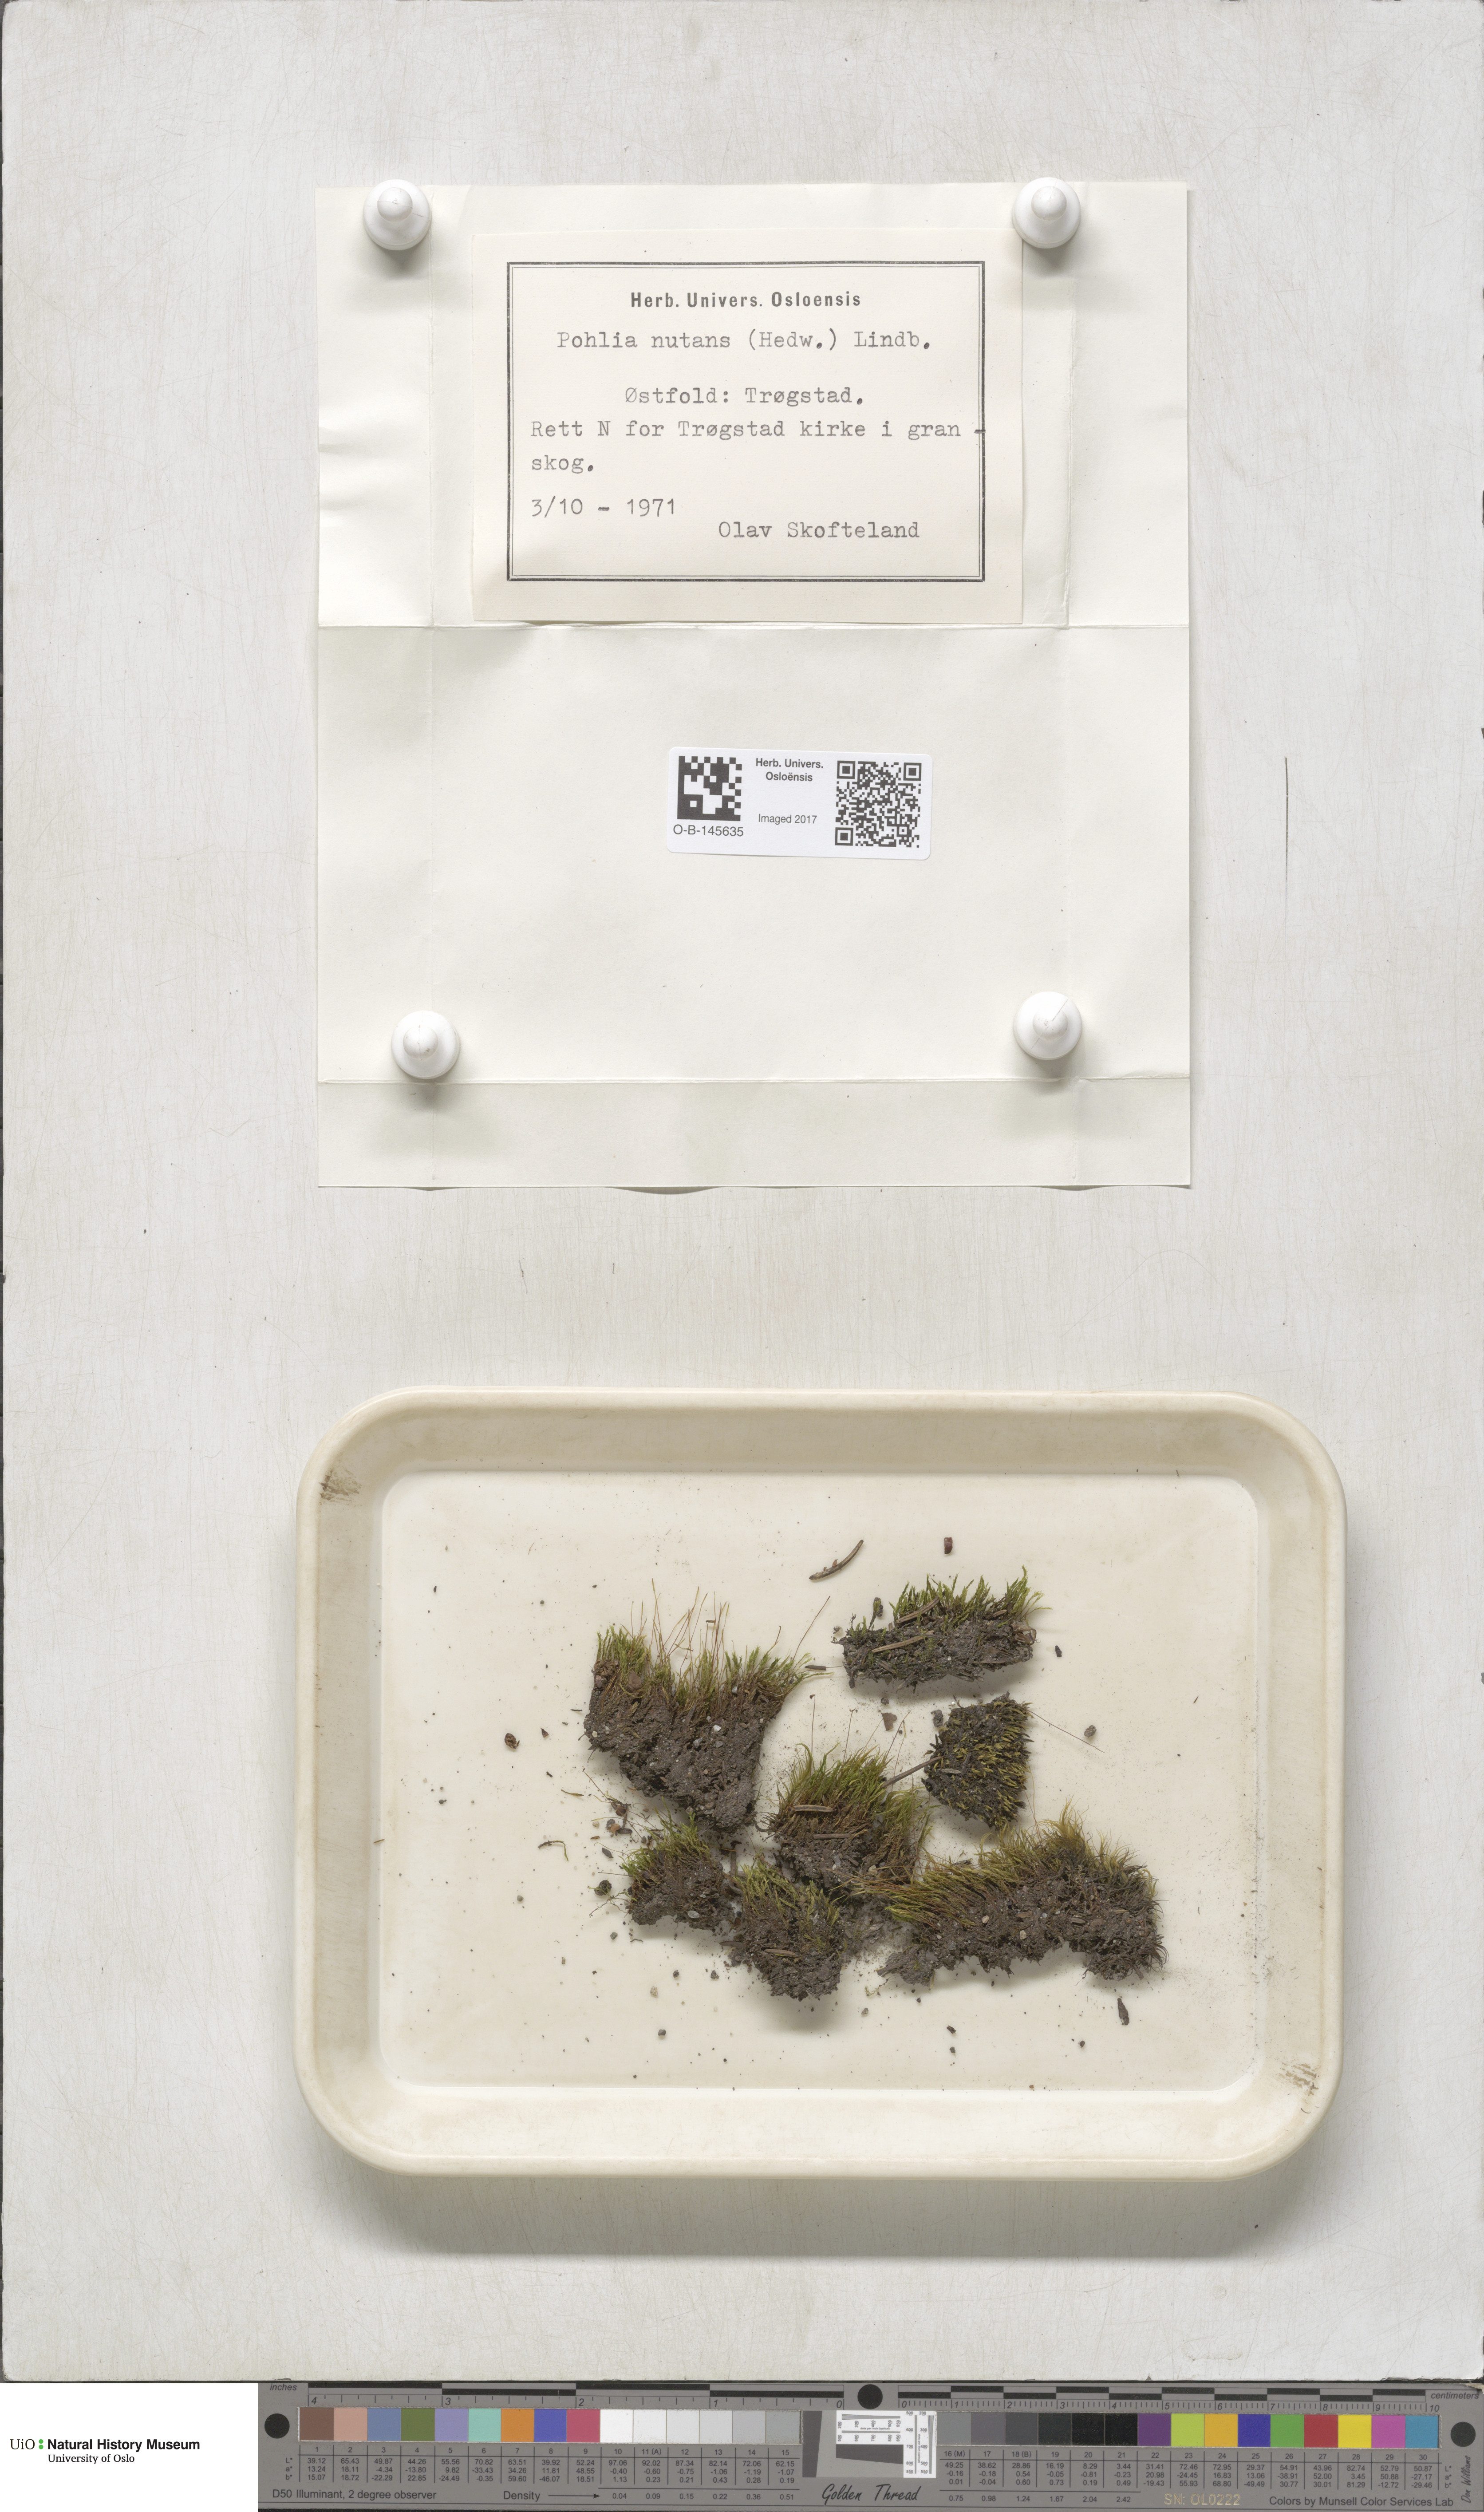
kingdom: Plantae
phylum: Bryophyta
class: Bryopsida
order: Bryales
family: Mniaceae
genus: Pohlia
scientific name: Pohlia nutans
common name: Nodding thread-moss
